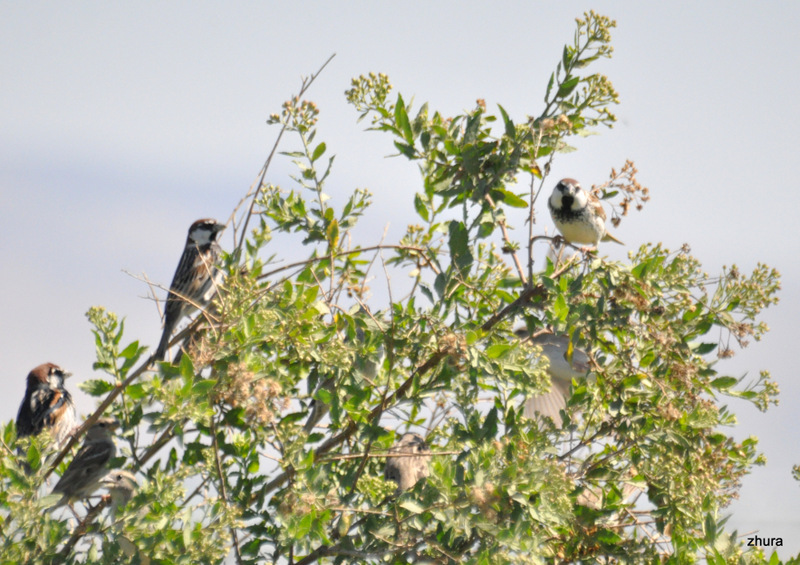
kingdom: Animalia
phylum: Chordata
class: Aves
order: Passeriformes
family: Passeridae
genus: Passer
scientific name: Passer hispaniolensis
